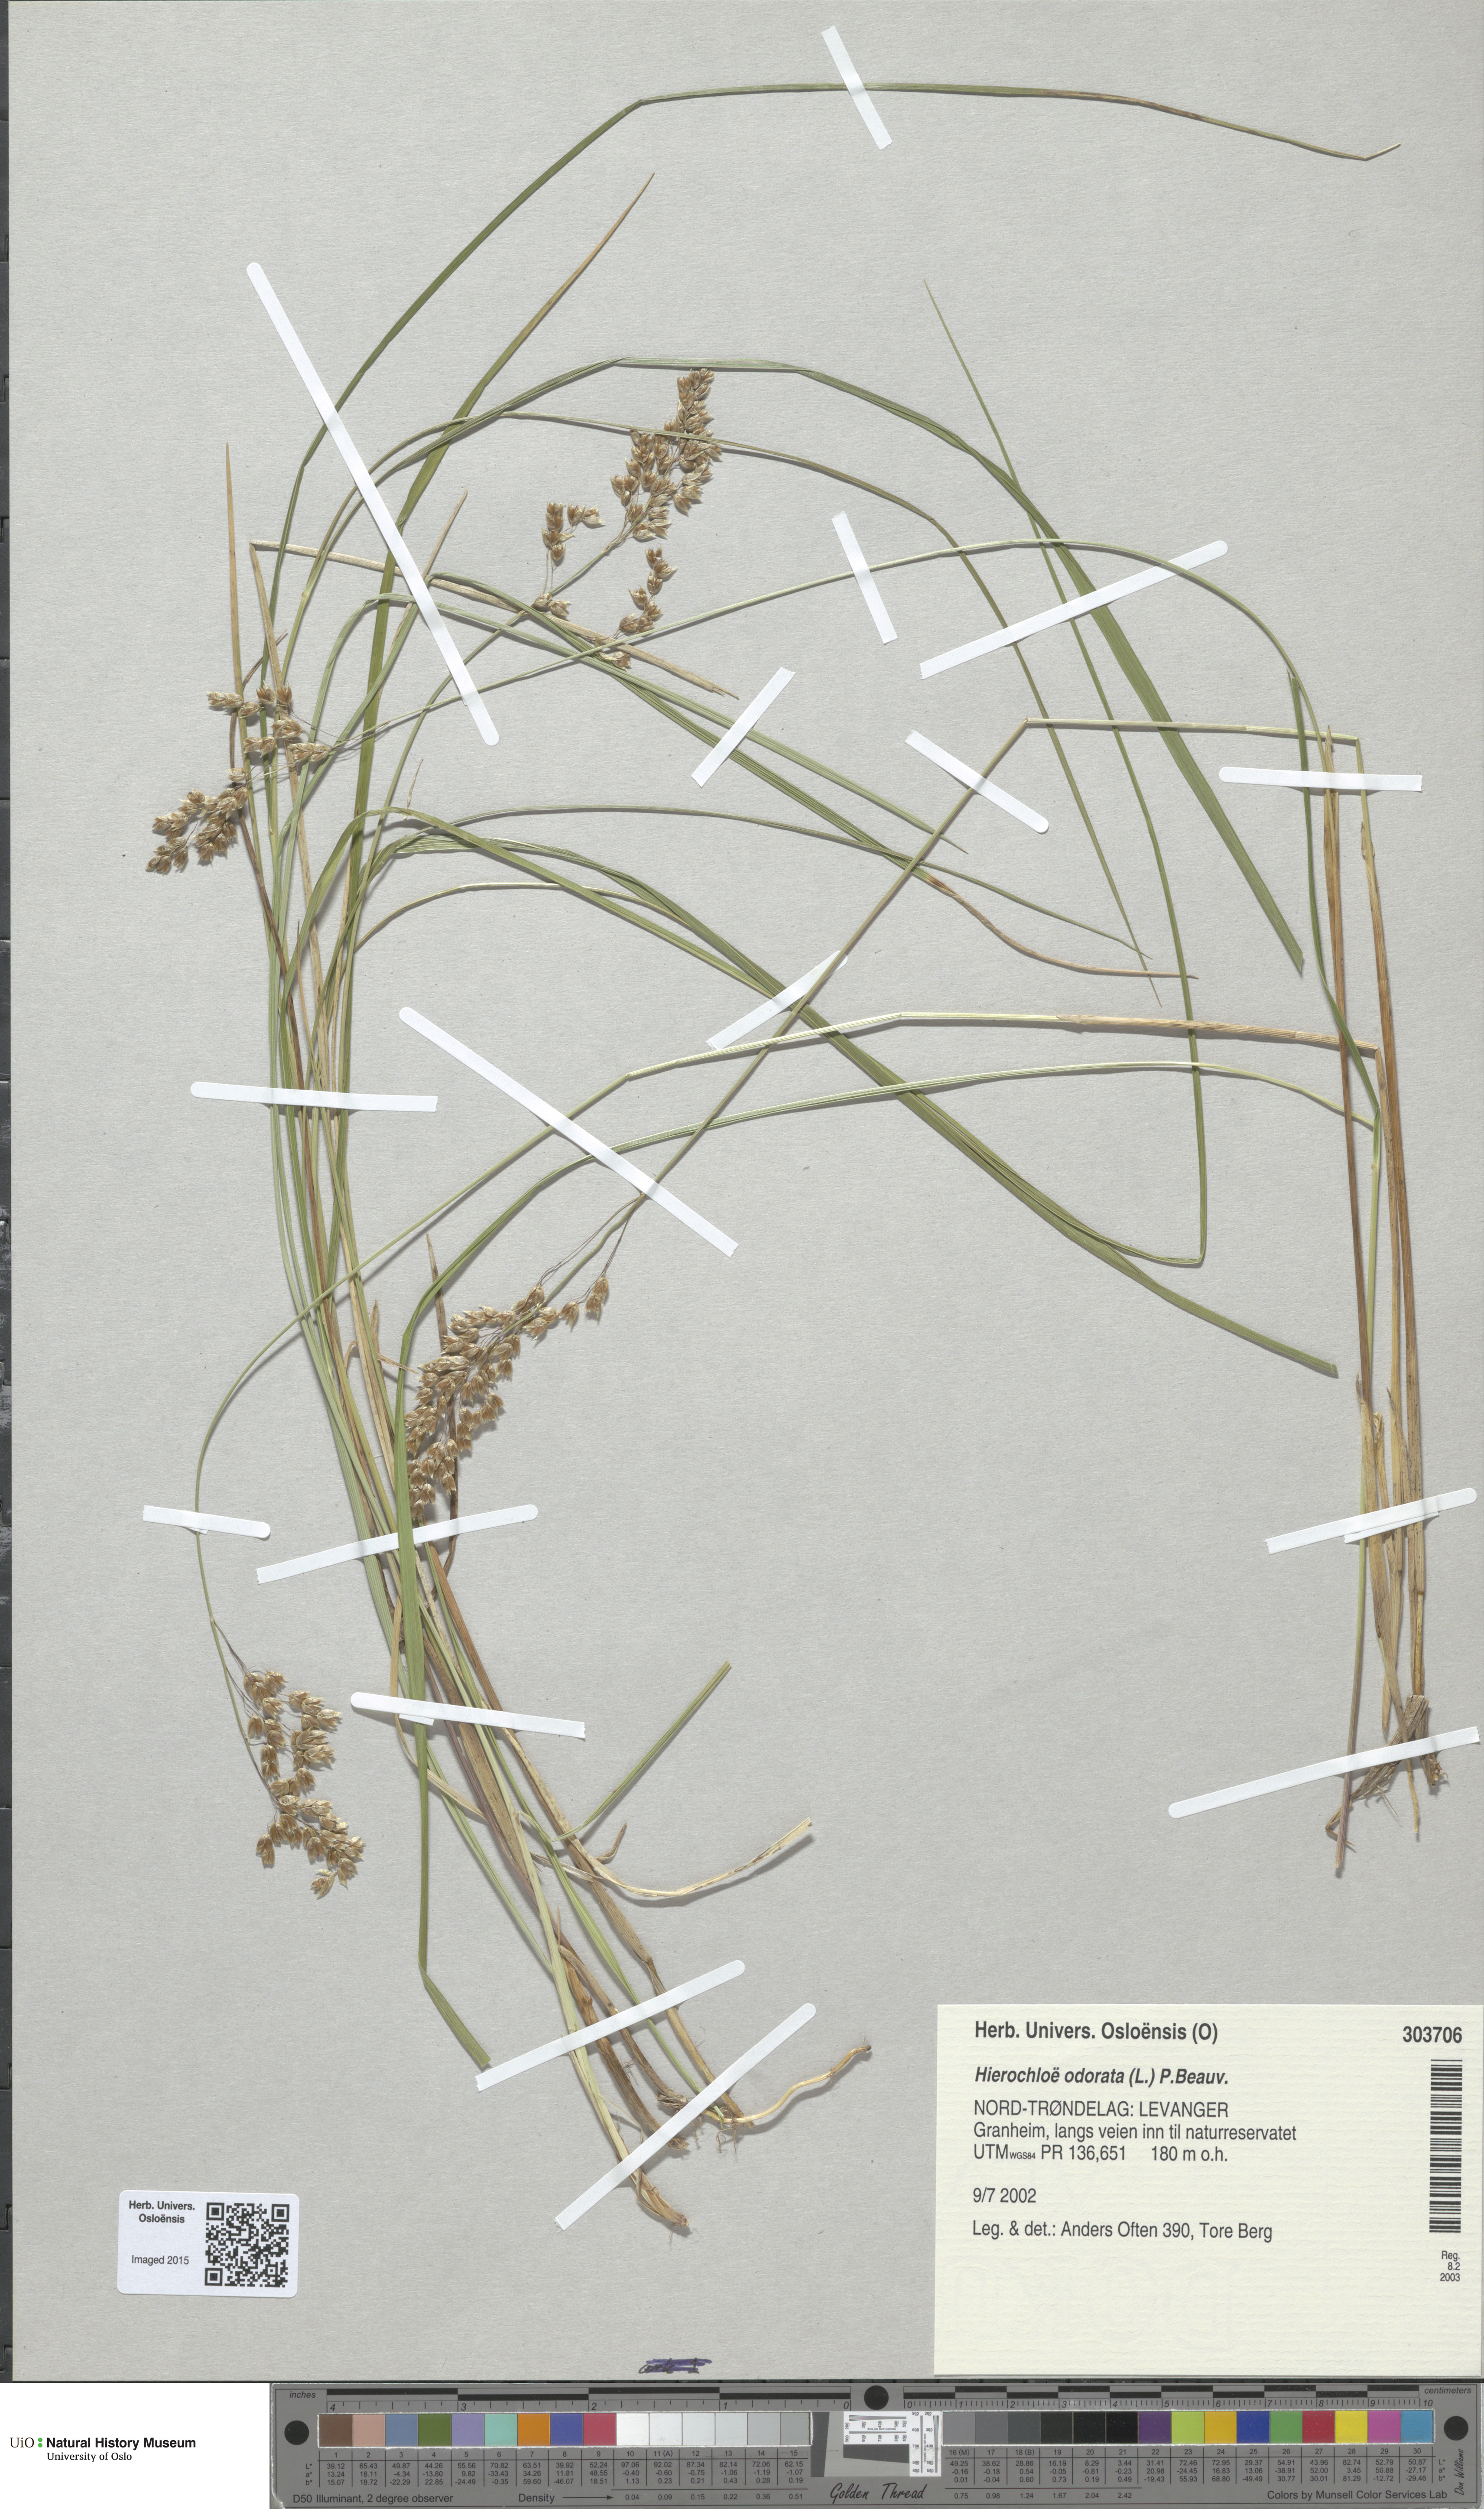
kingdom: Plantae
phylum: Tracheophyta
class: Liliopsida
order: Poales
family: Poaceae
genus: Anthoxanthum
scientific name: Anthoxanthum nitens
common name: Holy grass
